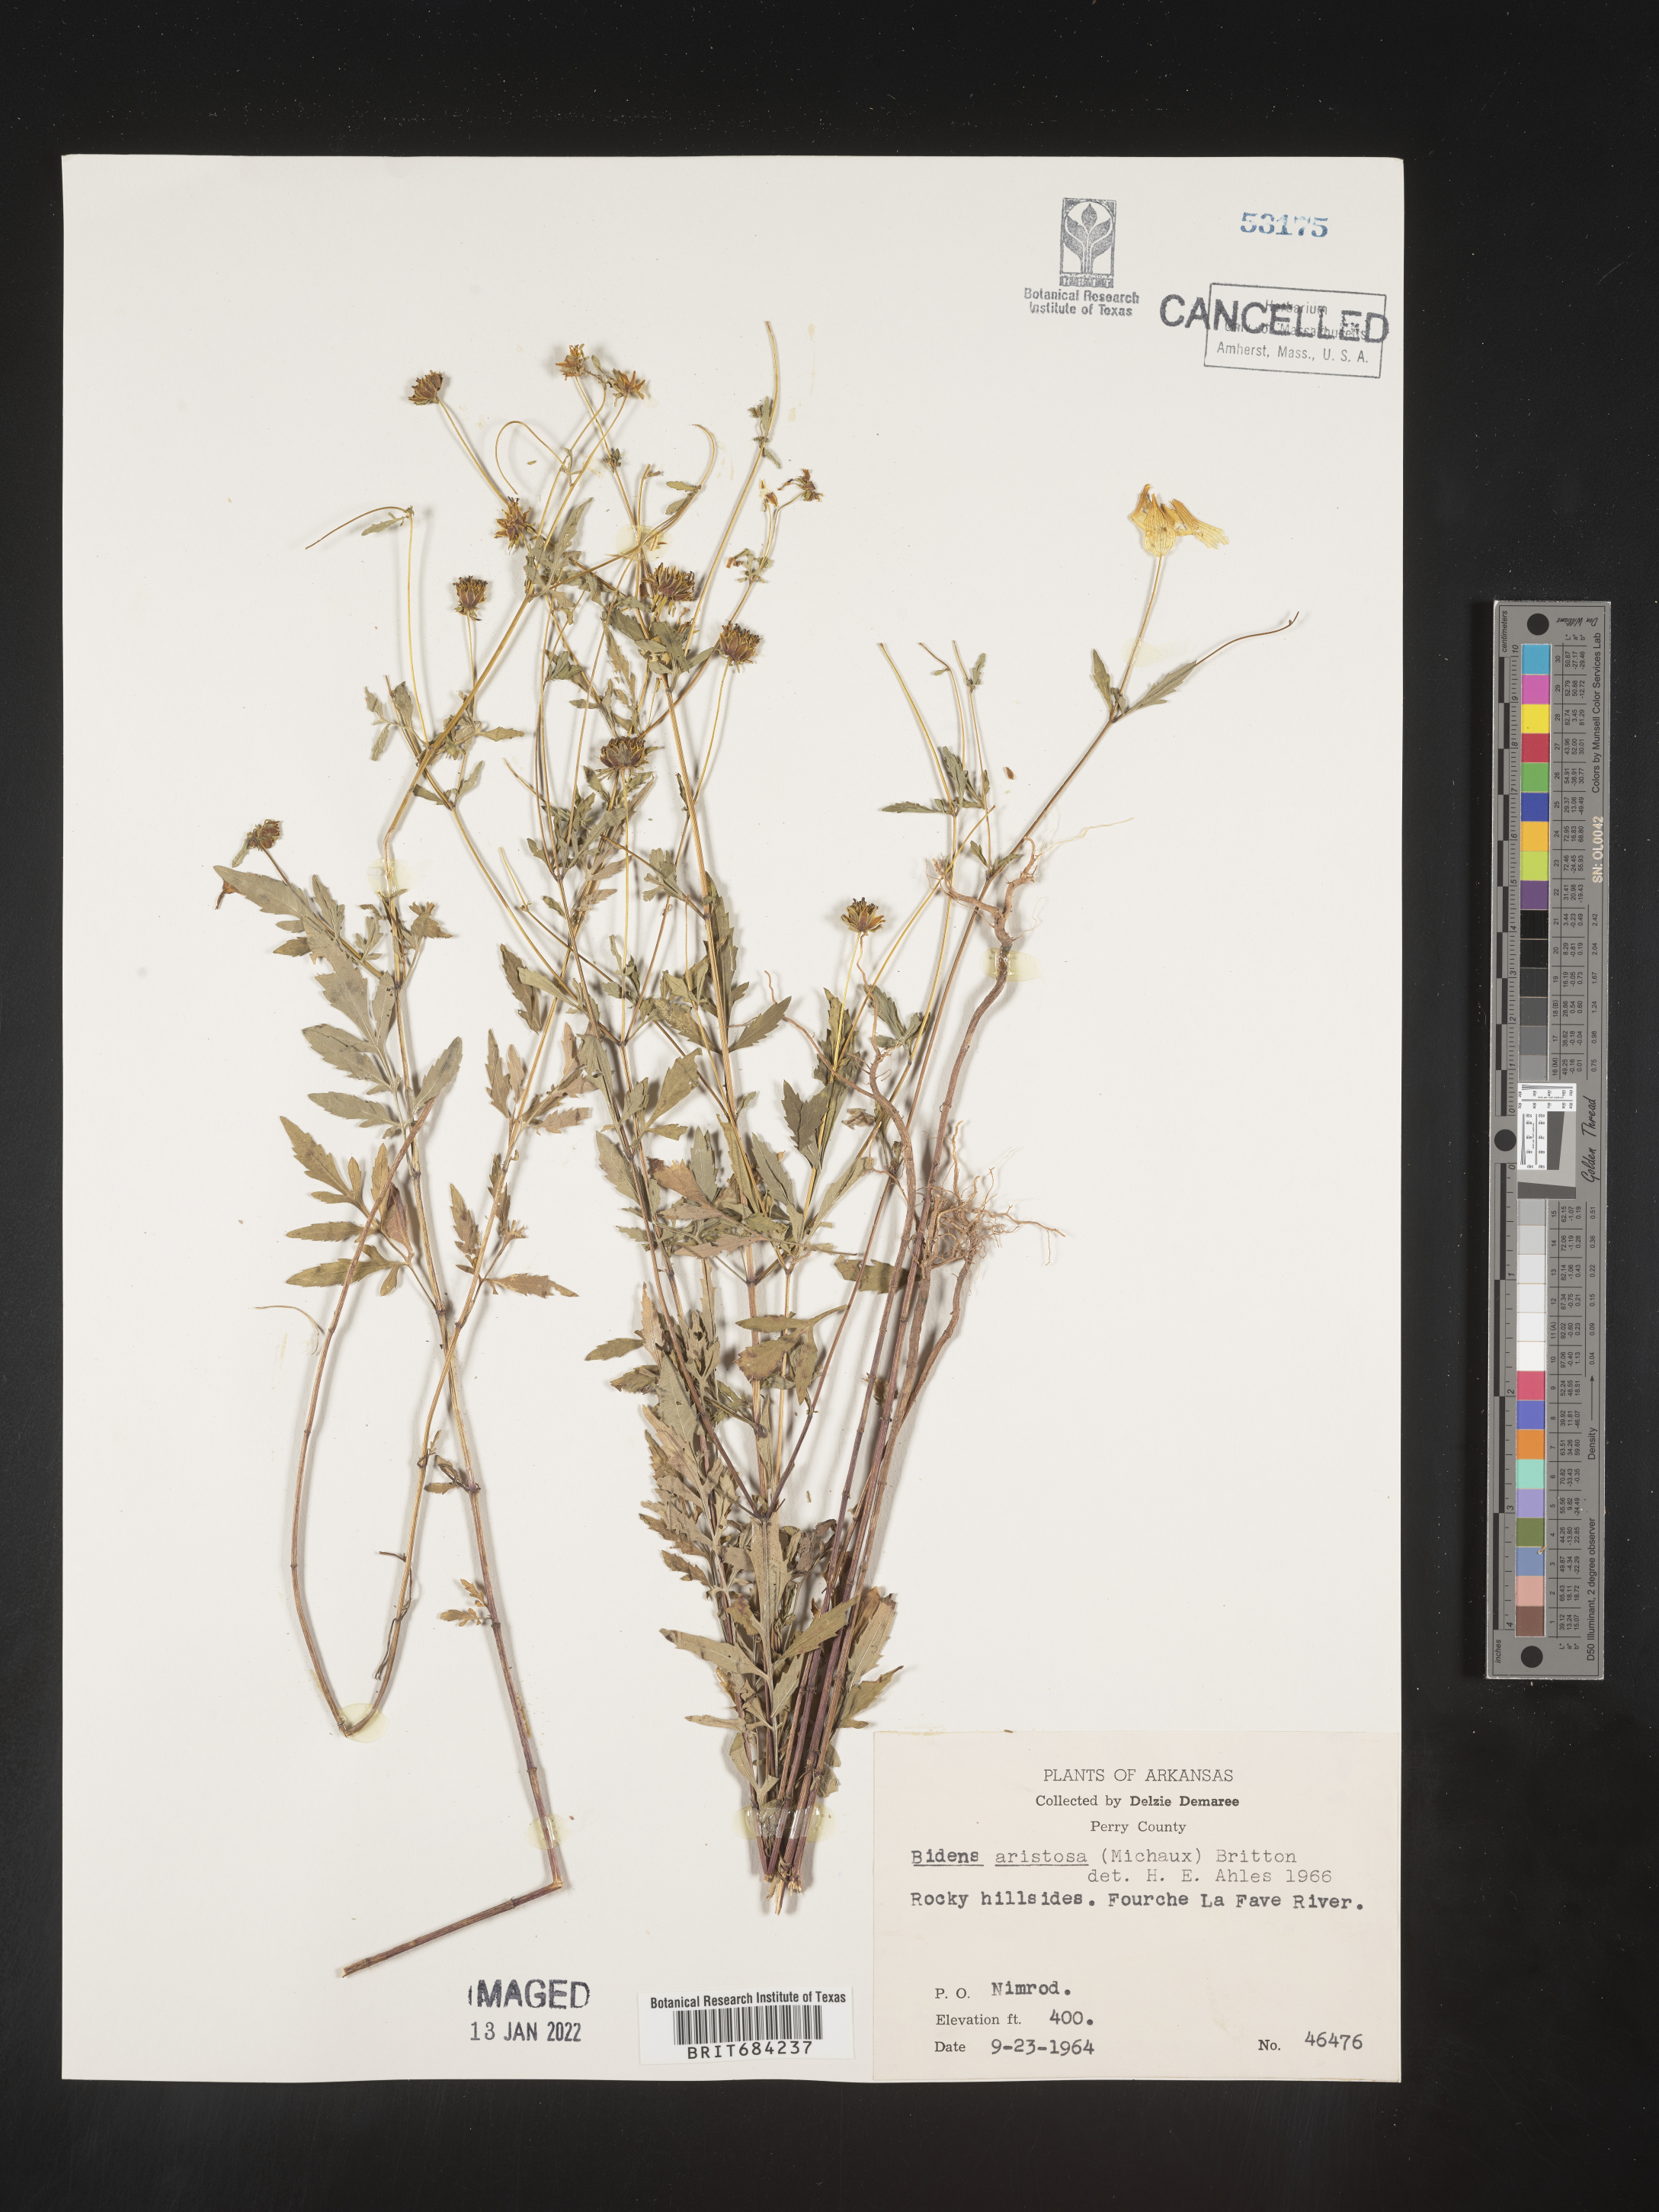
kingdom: Plantae
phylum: Tracheophyta
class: Magnoliopsida
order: Asterales
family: Asteraceae
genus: Bidens
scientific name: Bidens aristosa
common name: Western tickseed
